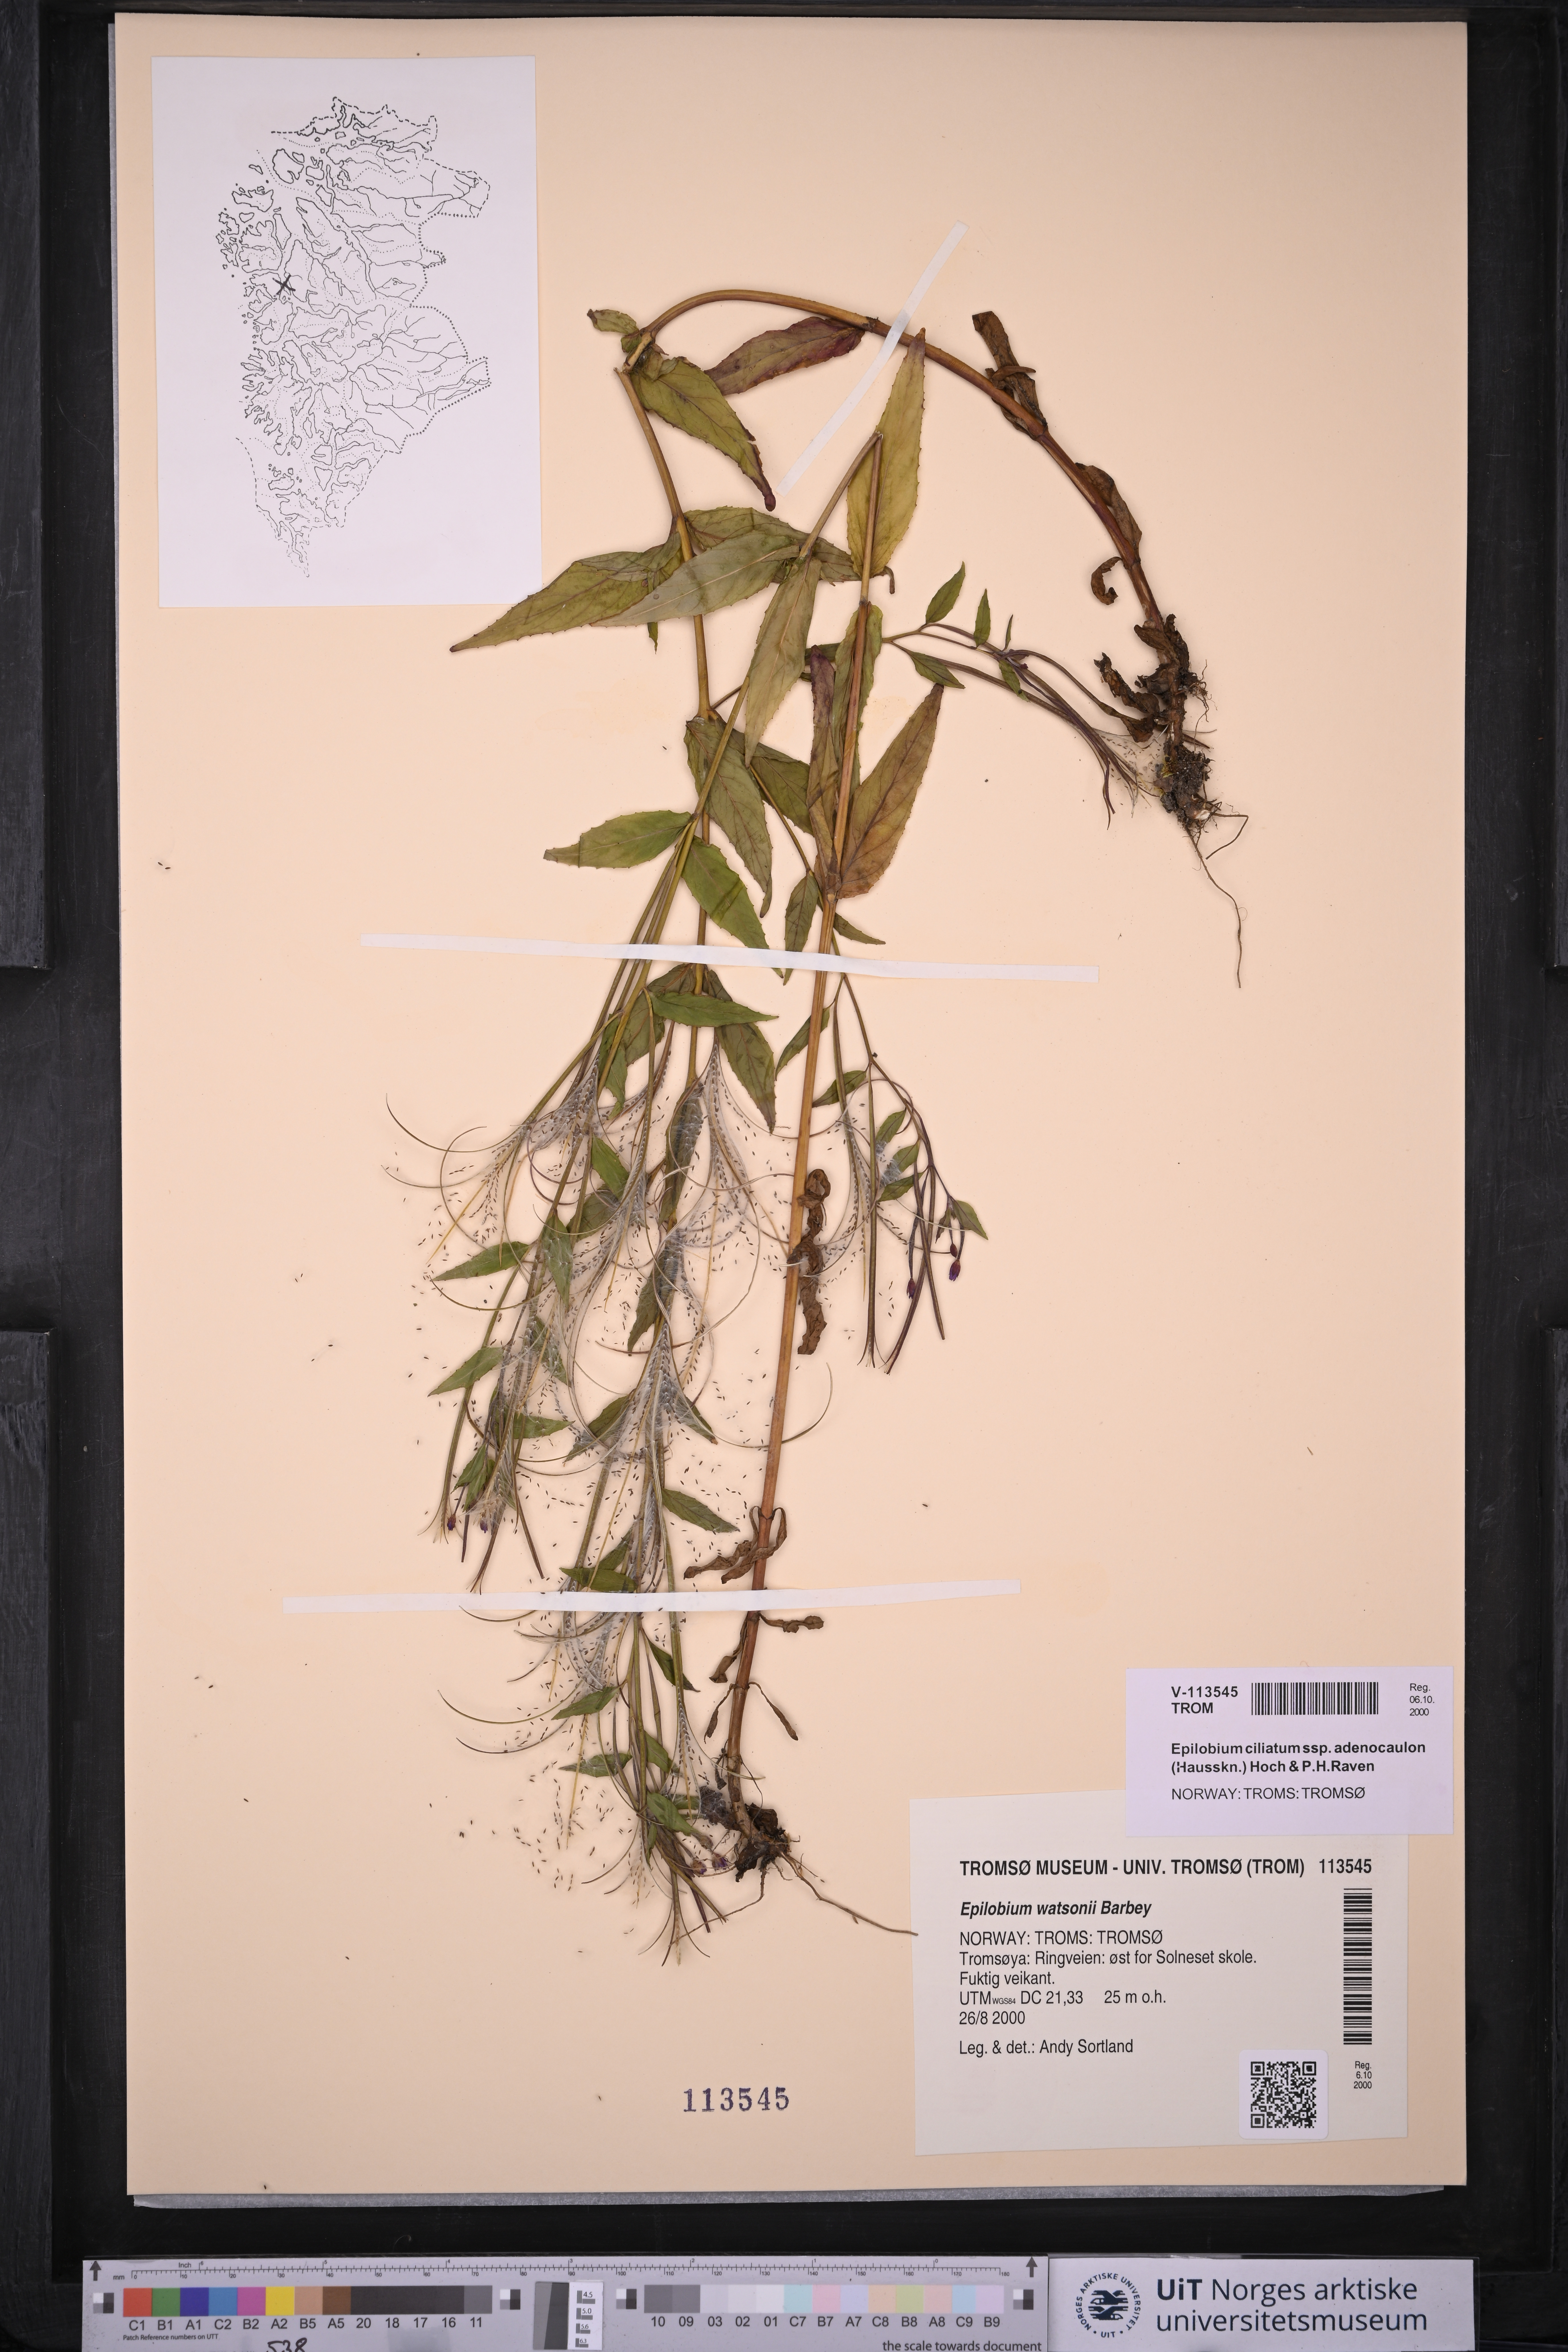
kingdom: Plantae
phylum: Tracheophyta
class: Magnoliopsida
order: Myrtales
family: Onagraceae
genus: Epilobium
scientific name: Epilobium ciliatum
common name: American willowherb
